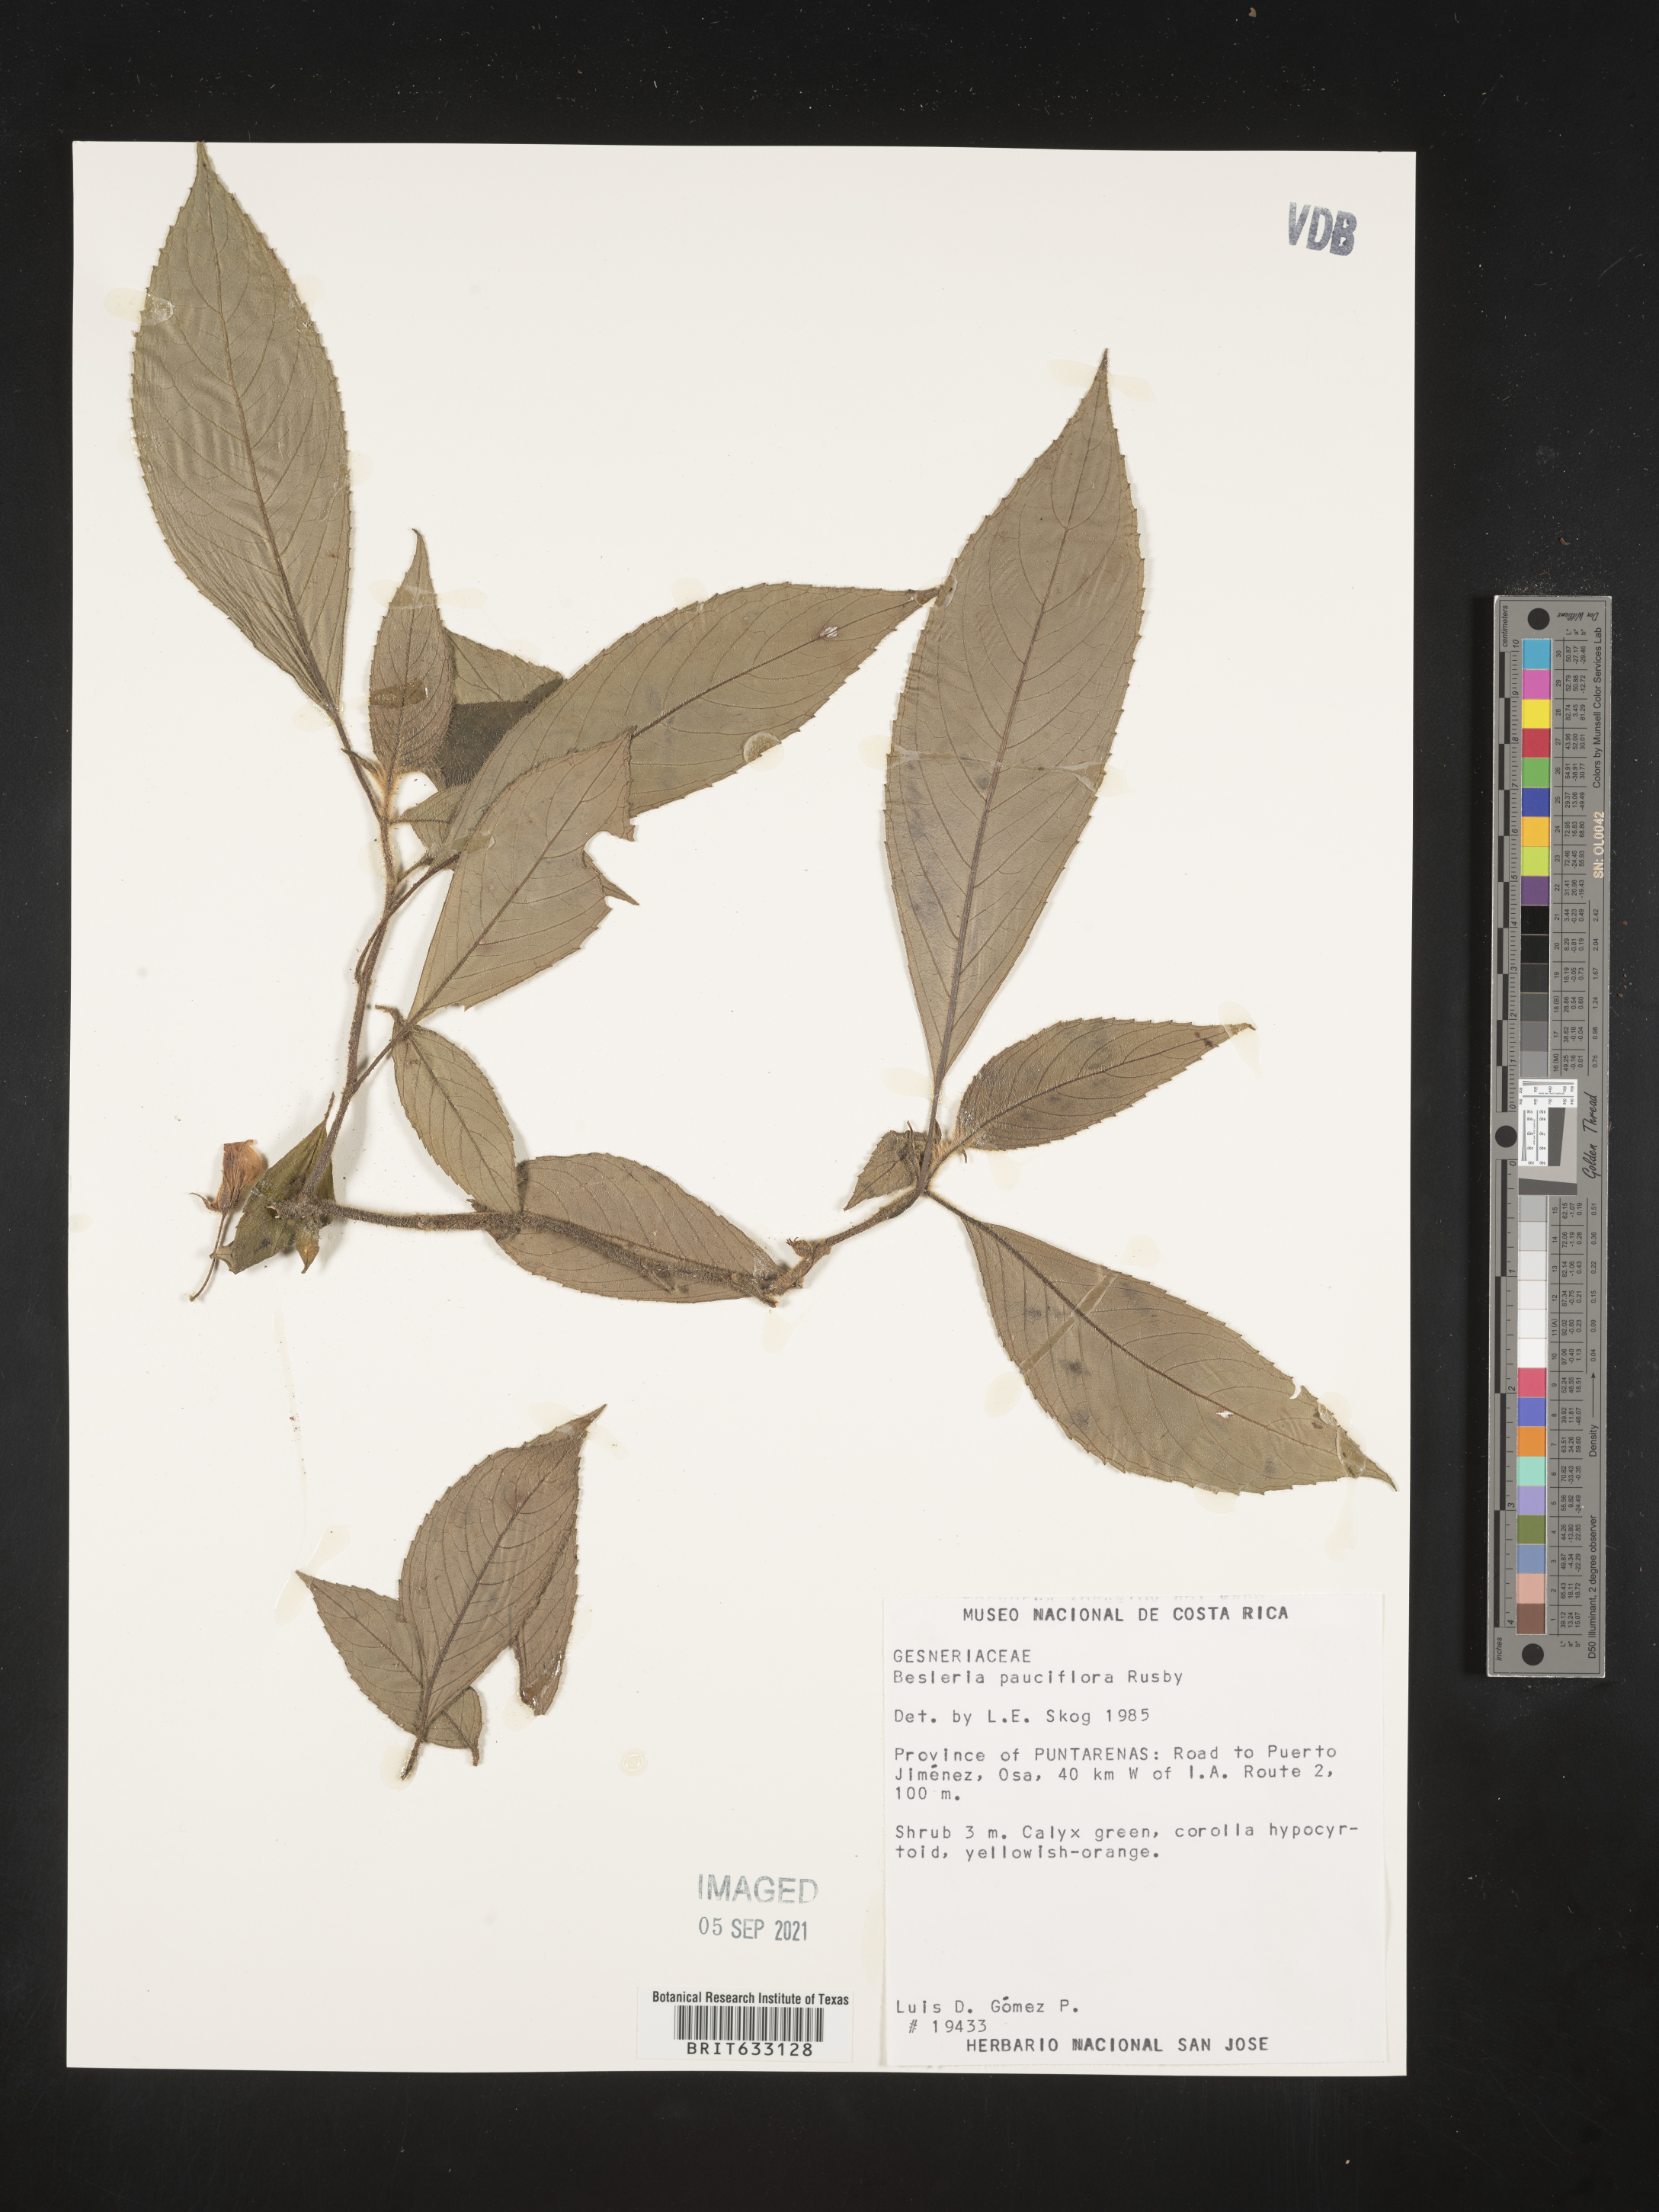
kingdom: Plantae
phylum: Tracheophyta
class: Magnoliopsida
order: Lamiales
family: Gesneriaceae
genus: Besleria
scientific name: Besleria
